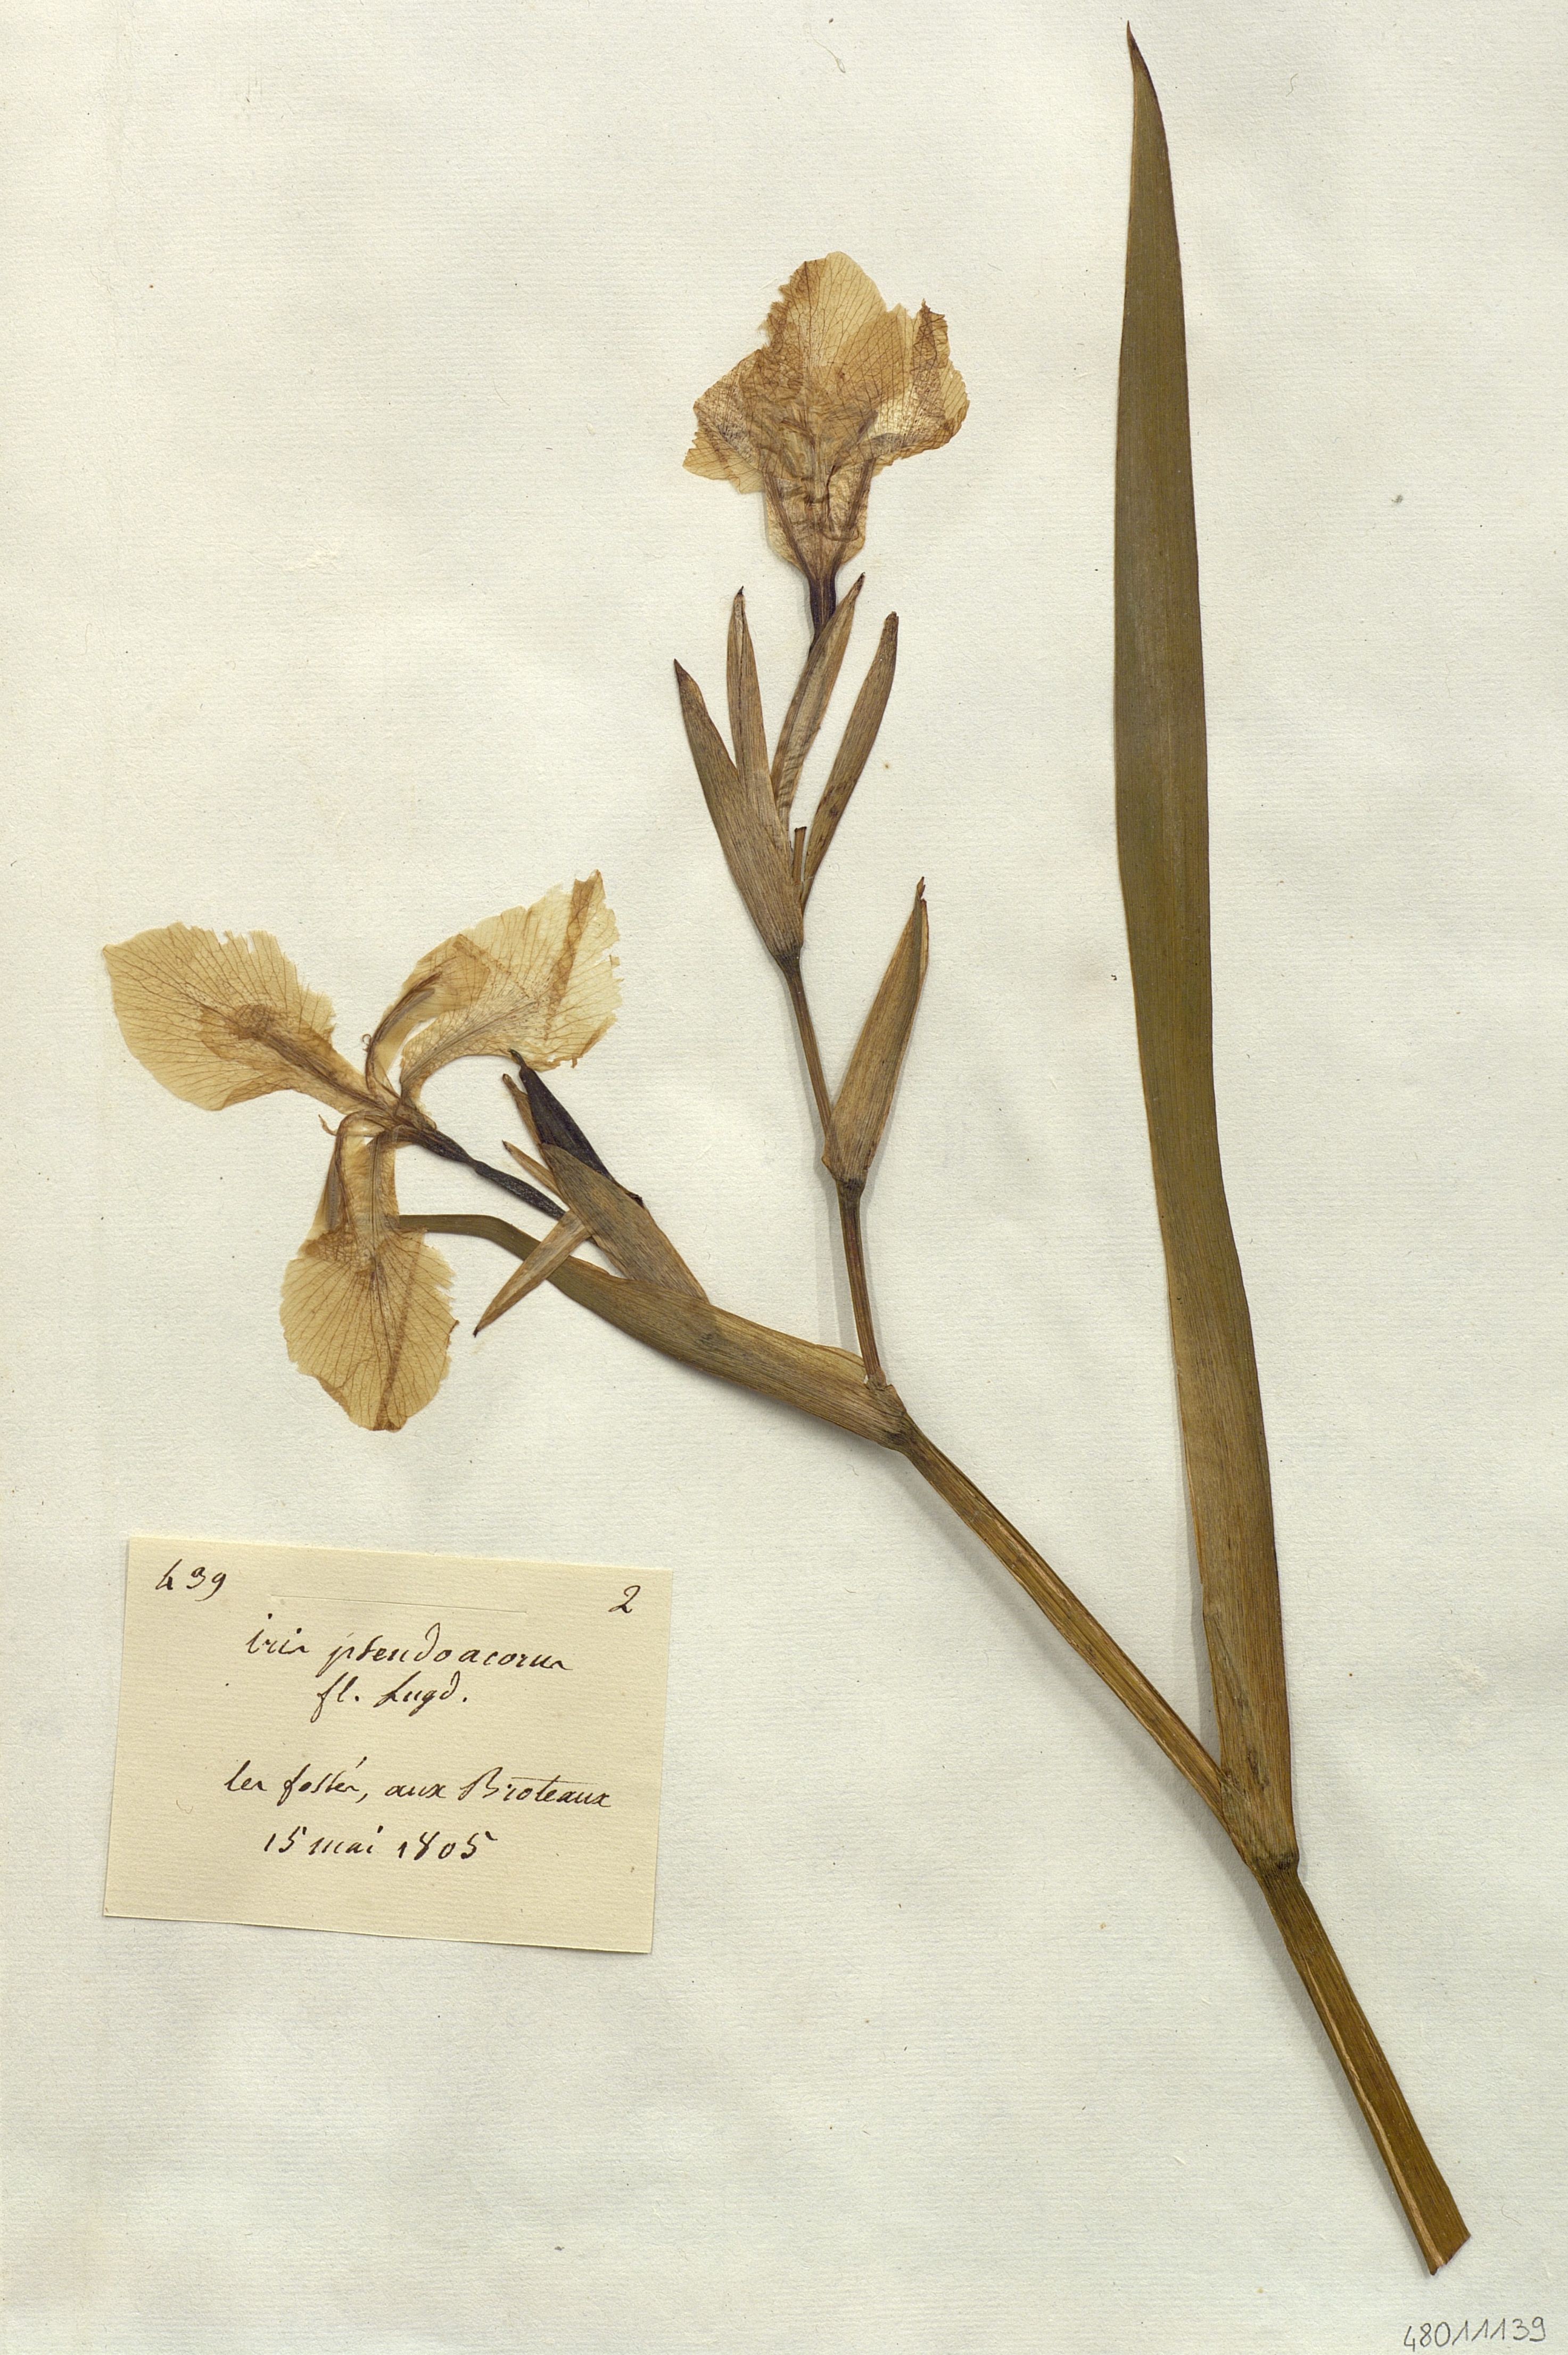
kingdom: Plantae
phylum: Tracheophyta
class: Liliopsida
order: Asparagales
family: Iridaceae
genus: Iris
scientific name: Iris pseudacorus
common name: Yellow flag
